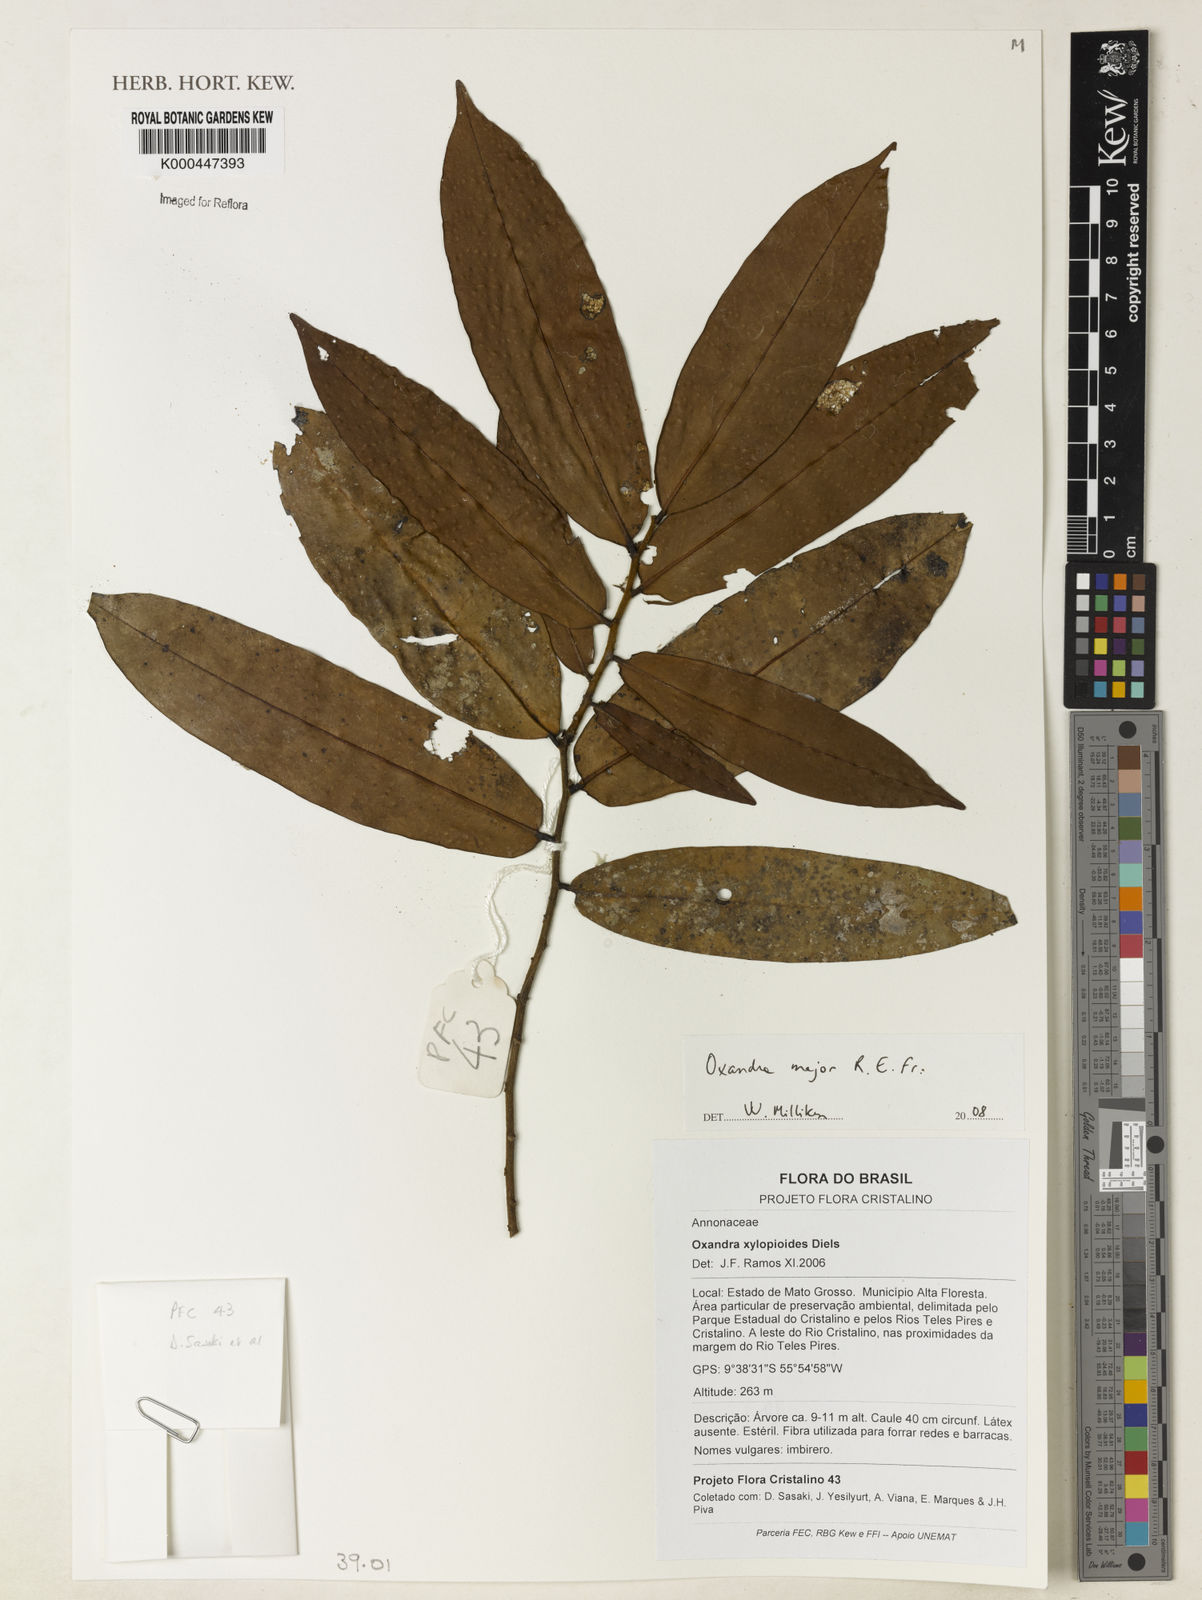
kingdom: Plantae
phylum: Tracheophyta
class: Magnoliopsida
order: Magnoliales
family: Annonaceae
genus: Oxandra
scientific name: Oxandra major
